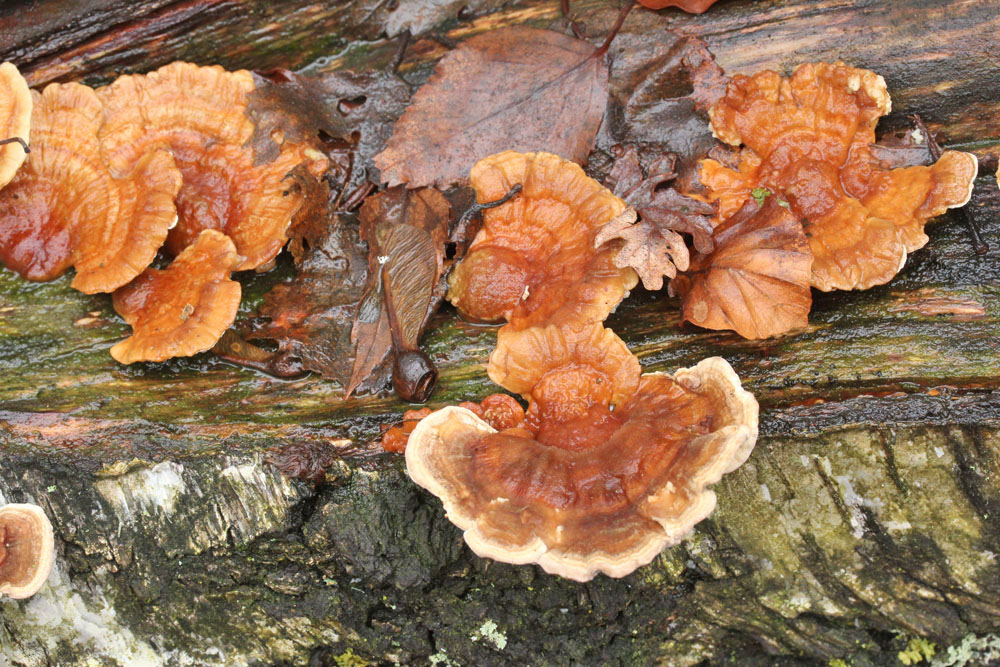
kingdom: Fungi
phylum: Basidiomycota
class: Agaricomycetes
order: Polyporales
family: Polyporaceae
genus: Trametes
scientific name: Trametes ochracea
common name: bæltet læderporesvamp
